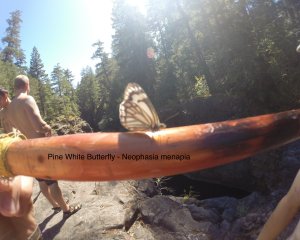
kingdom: Animalia
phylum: Arthropoda
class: Insecta
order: Lepidoptera
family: Pieridae
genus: Neophasia
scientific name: Neophasia menapia
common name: Pine White
